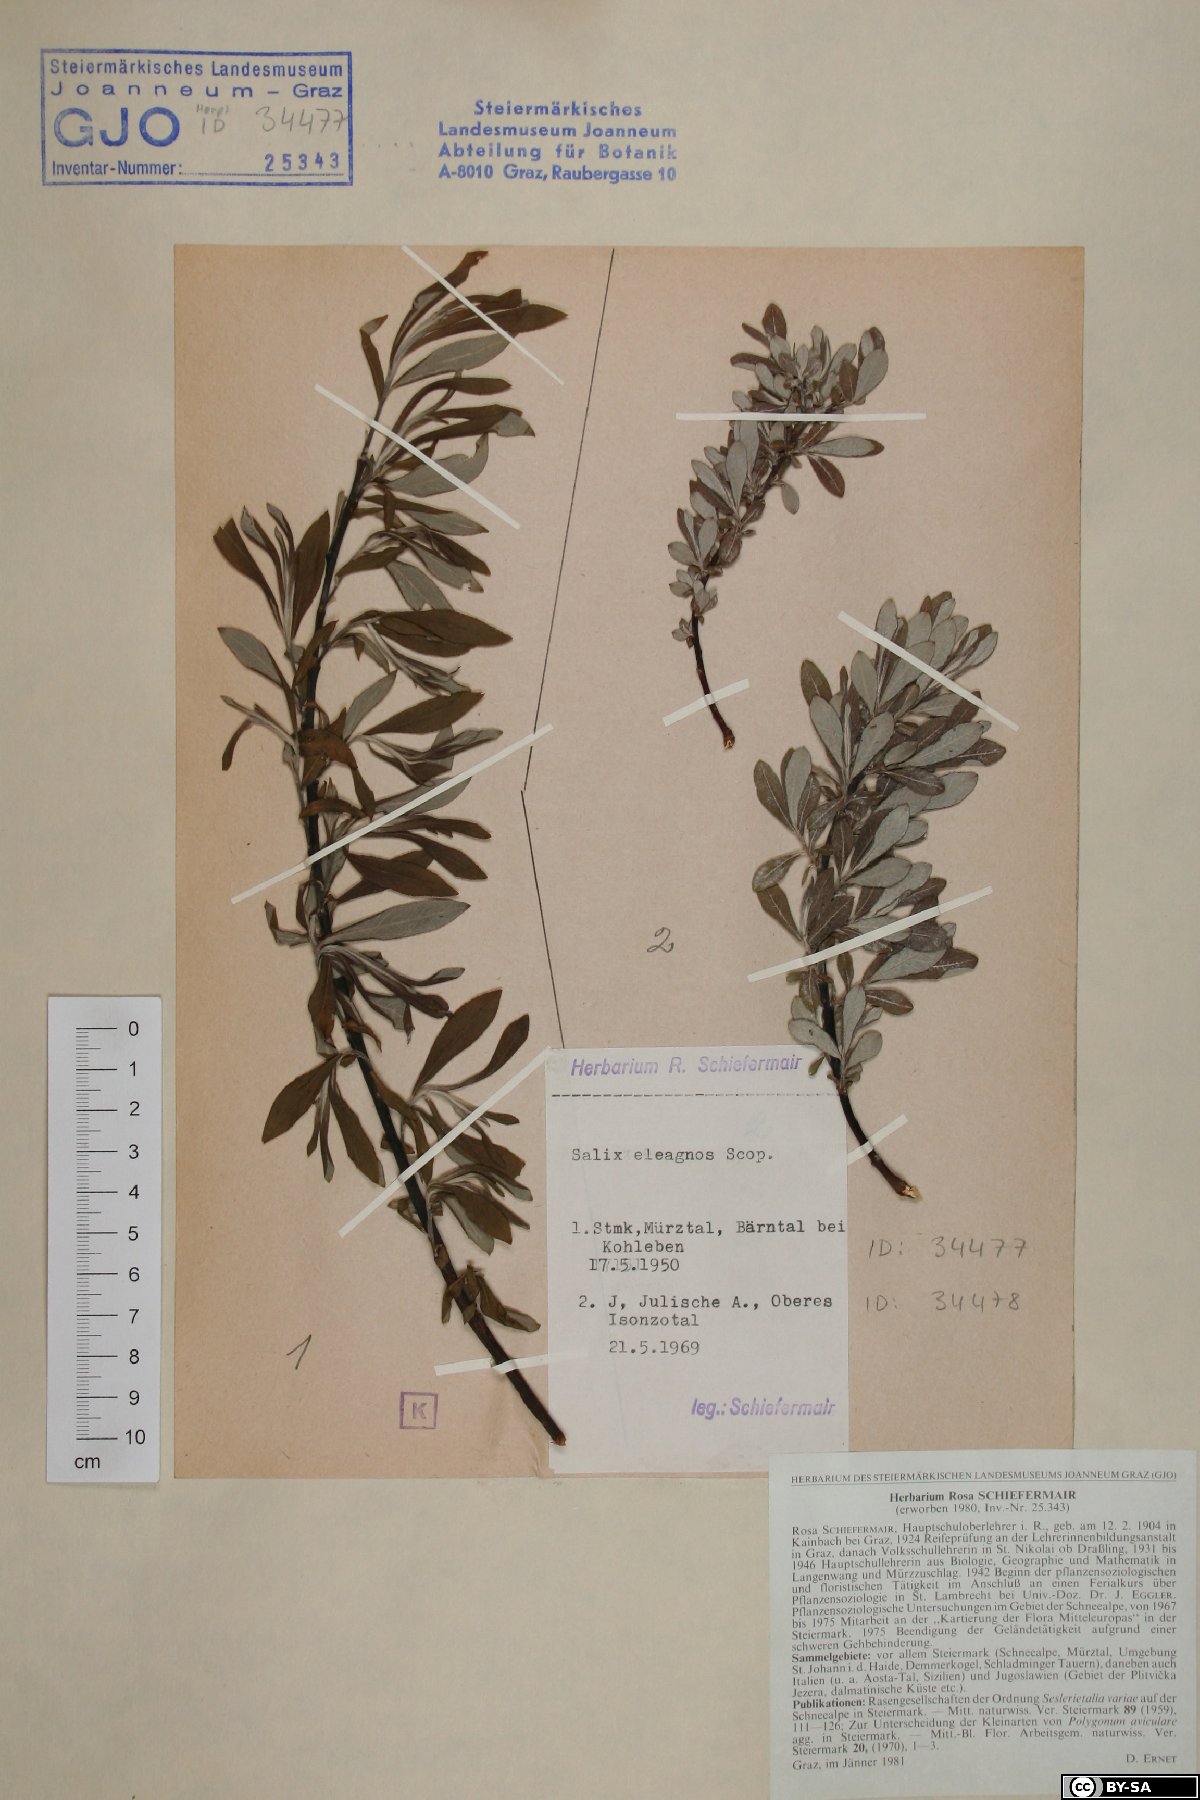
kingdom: Plantae
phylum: Tracheophyta
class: Magnoliopsida
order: Malpighiales
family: Salicaceae
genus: Salix
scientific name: Salix eleagnos
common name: Elaeagnus willow
